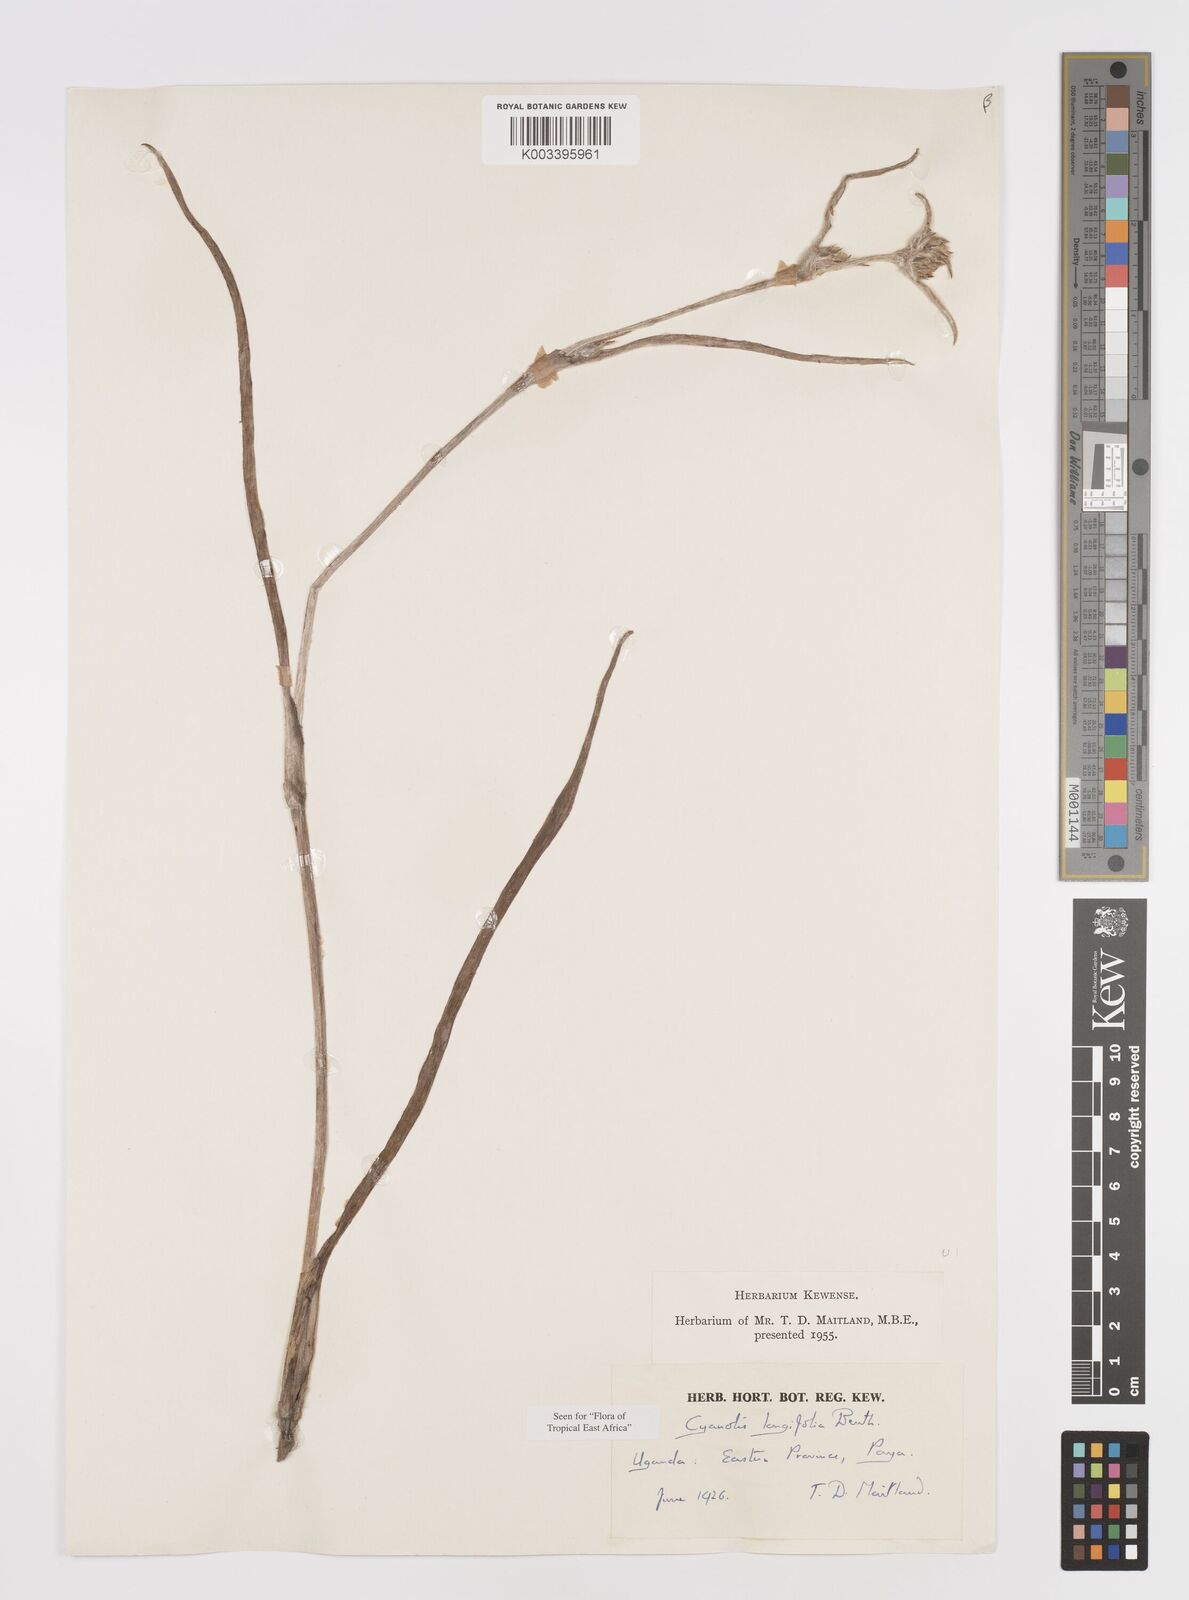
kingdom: Plantae
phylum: Tracheophyta
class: Liliopsida
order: Commelinales
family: Commelinaceae
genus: Cyanotis
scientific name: Cyanotis longifolia
